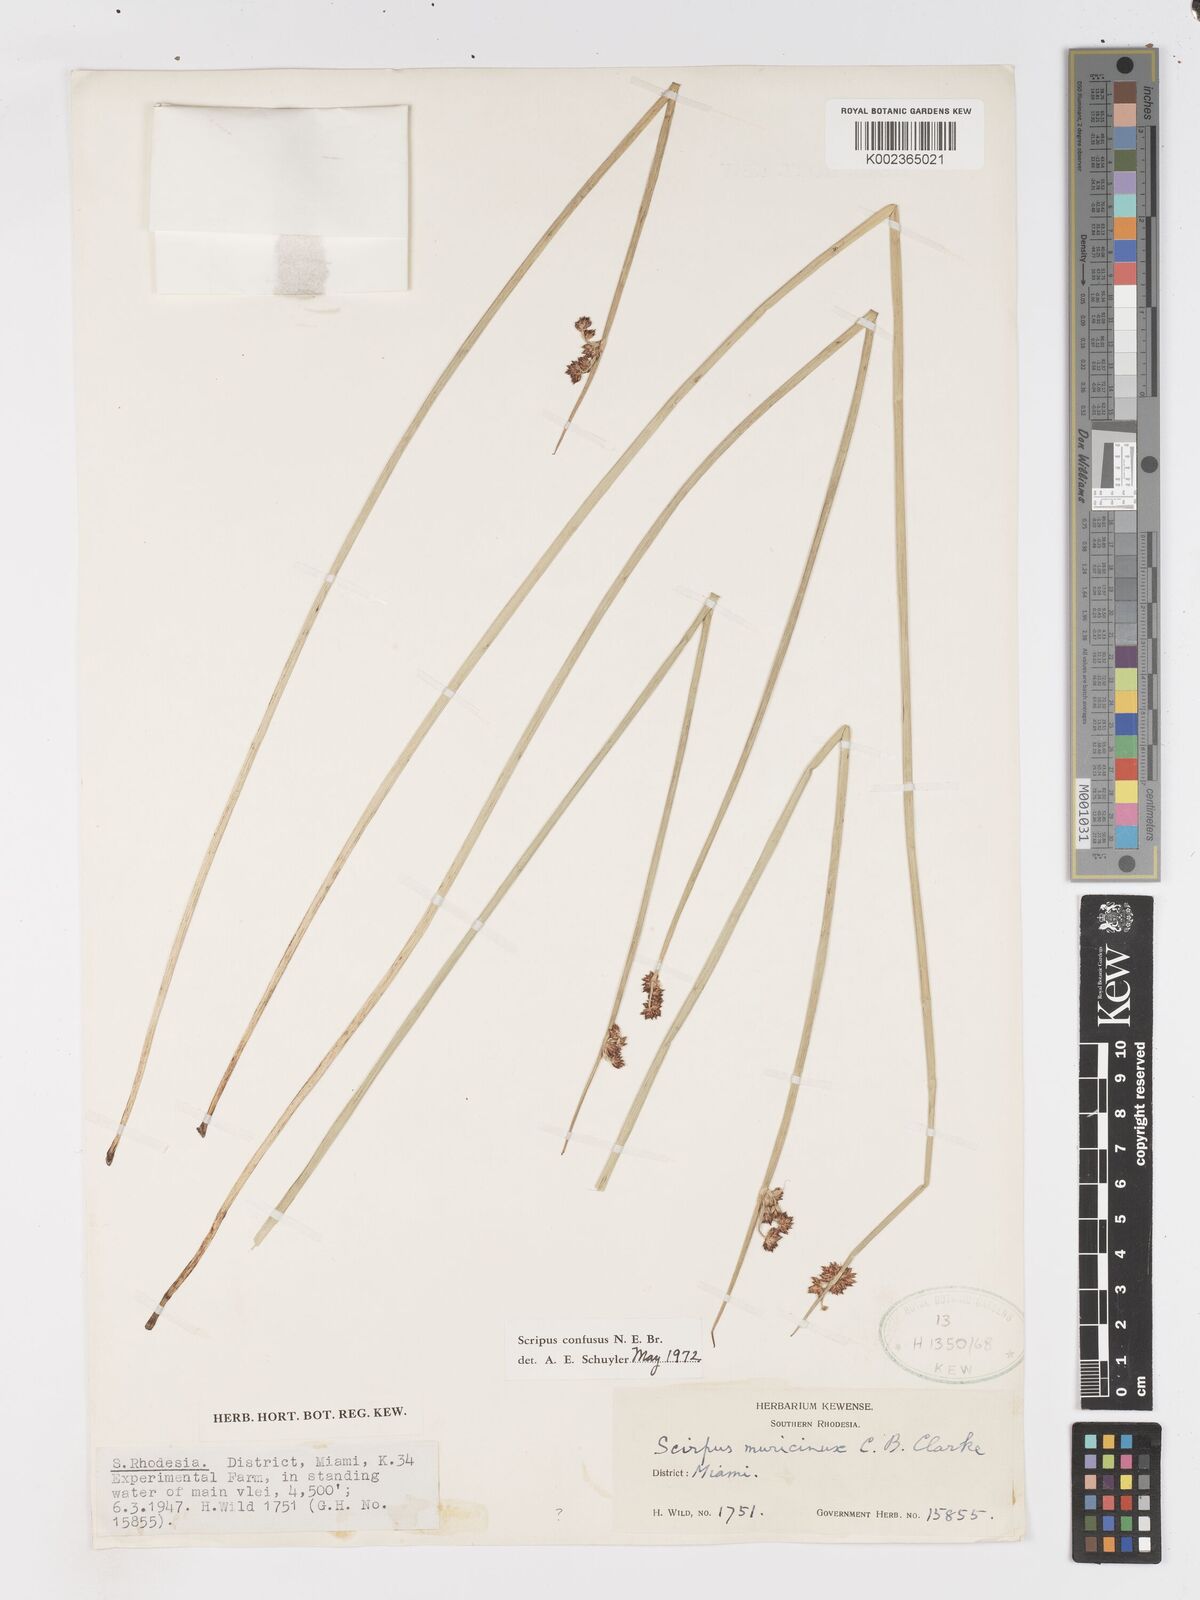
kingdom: Plantae
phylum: Tracheophyta
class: Liliopsida
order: Poales
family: Cyperaceae
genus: Schoenoplectiella
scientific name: Schoenoplectiella confusa
